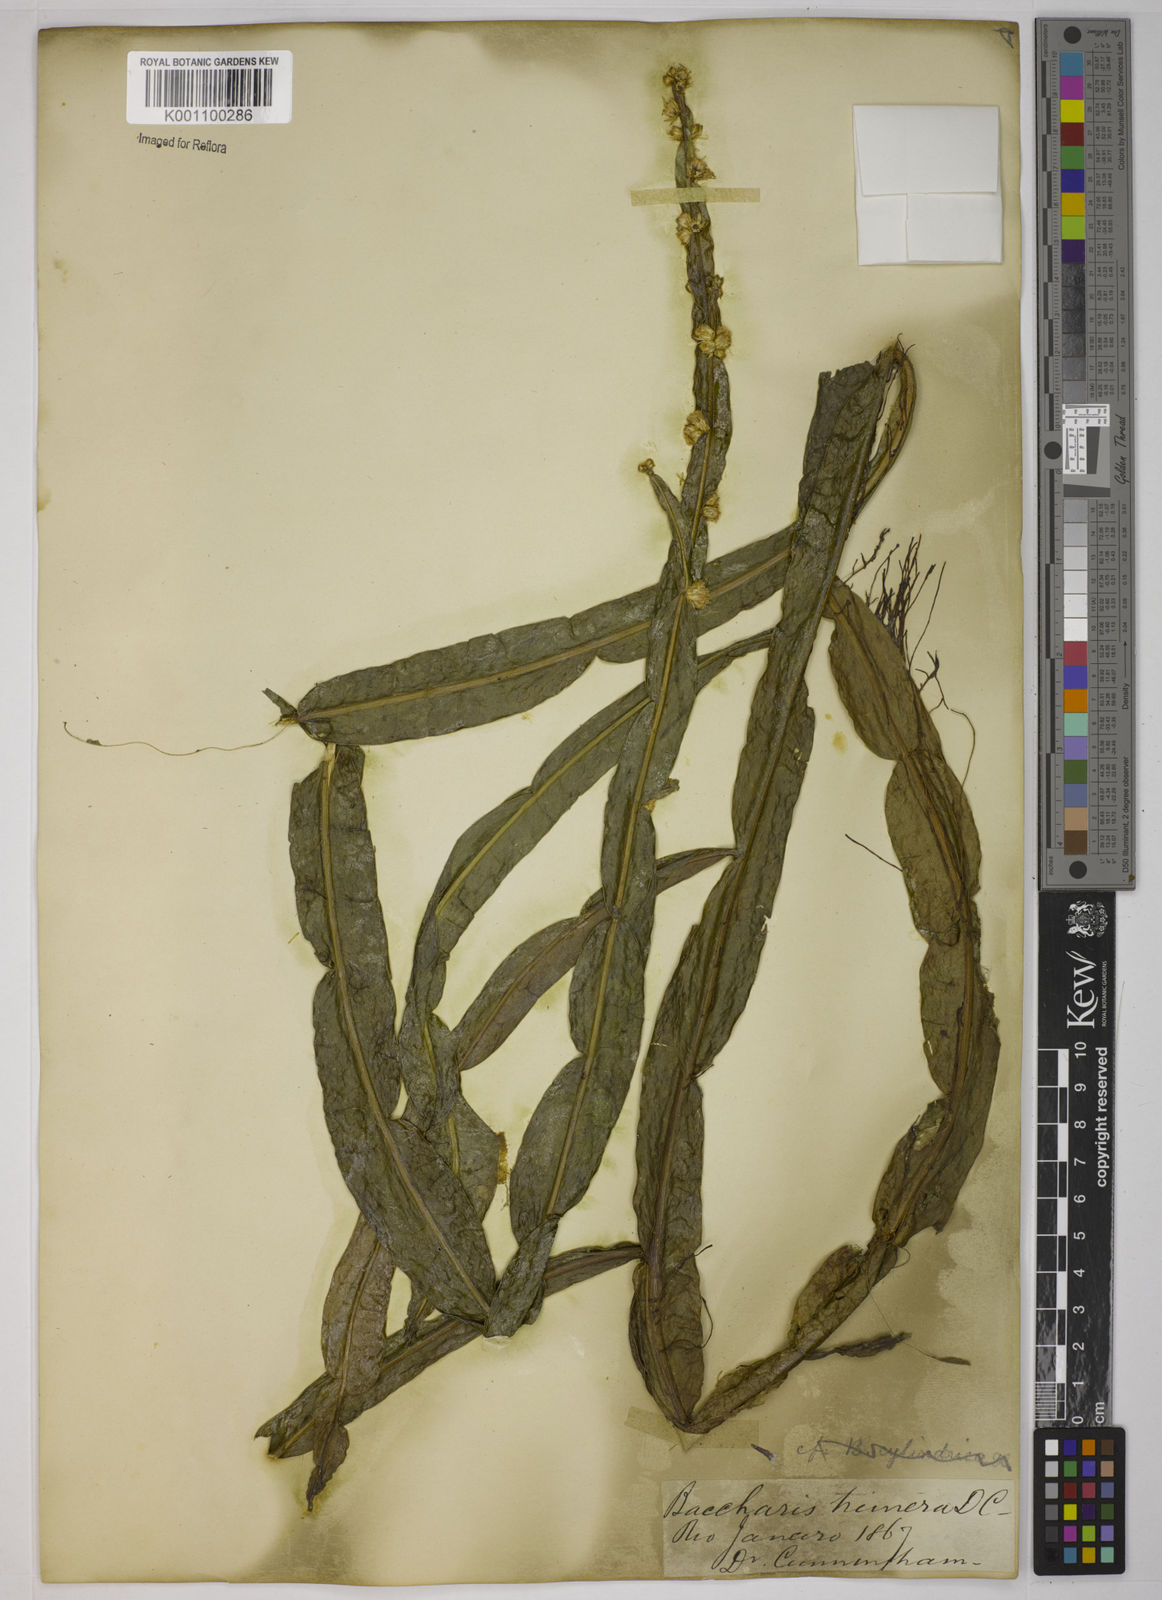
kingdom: Plantae
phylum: Tracheophyta
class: Magnoliopsida
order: Asterales
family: Asteraceae
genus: Baccharis
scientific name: Baccharis trimera
